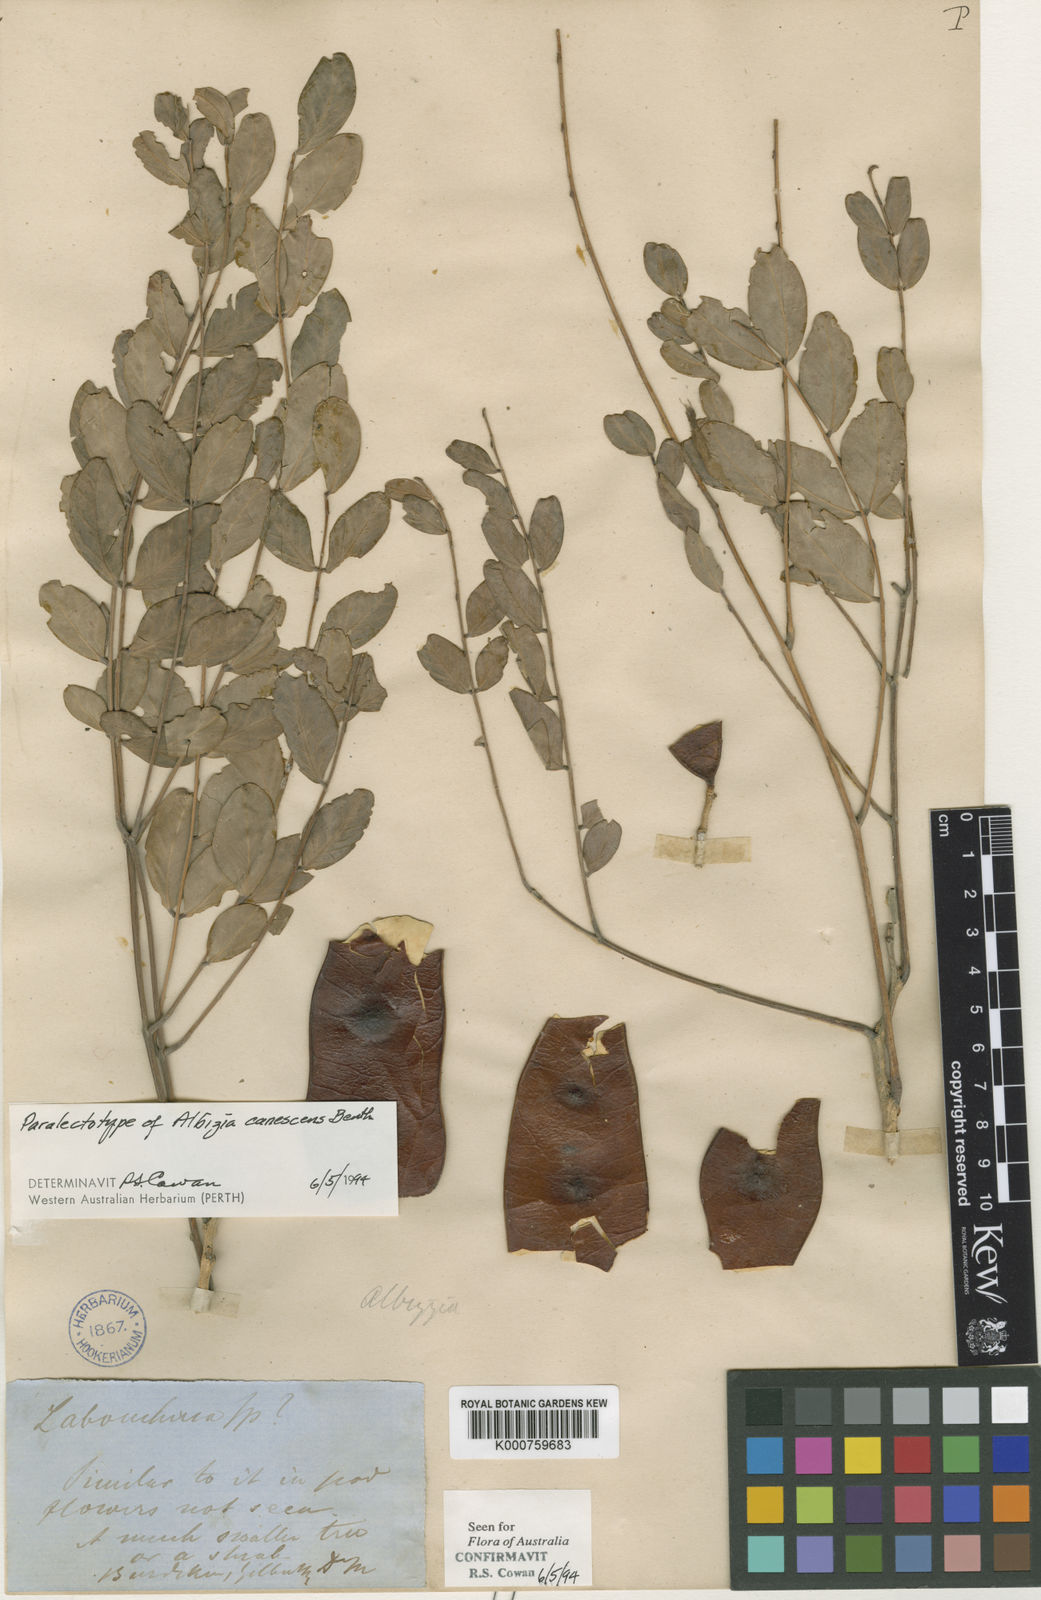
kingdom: Plantae
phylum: Tracheophyta
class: Magnoliopsida
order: Fabales
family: Fabaceae
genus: Albizia
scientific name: Albizia canescens
